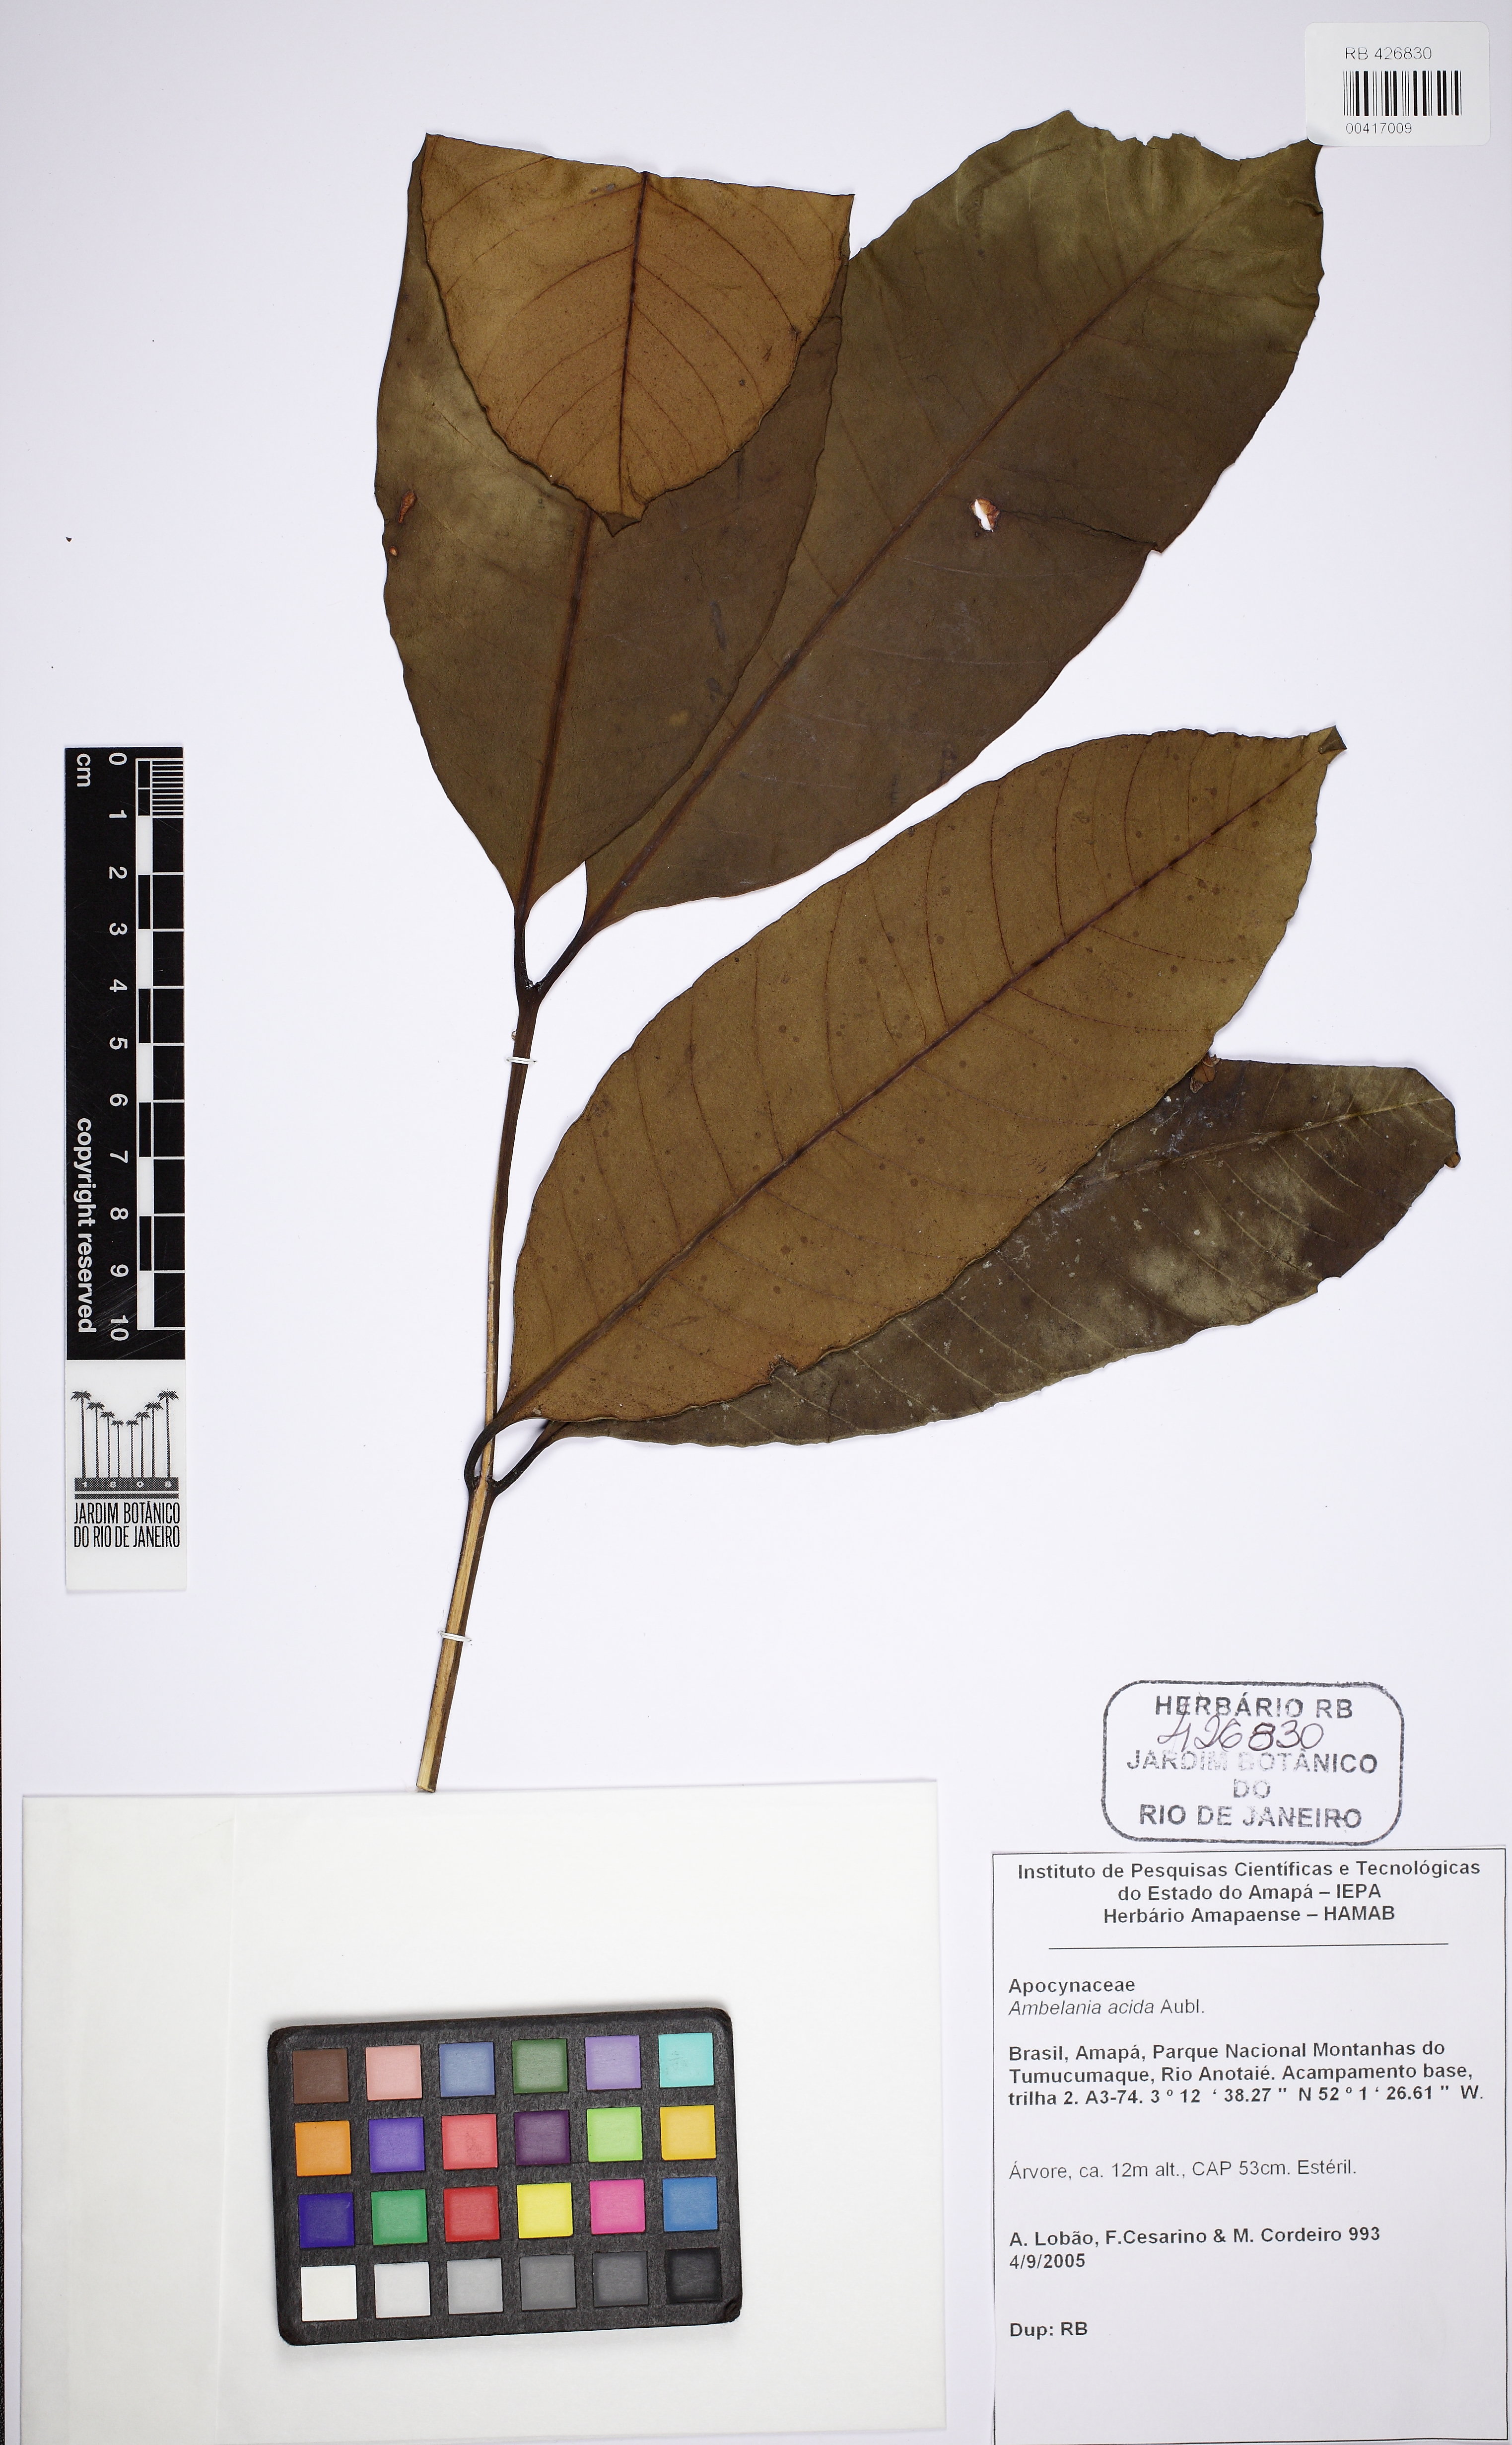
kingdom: Plantae
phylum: Tracheophyta
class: Magnoliopsida
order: Gentianales
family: Apocynaceae
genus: Ambelania
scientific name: Ambelania acida
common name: Bagasse
